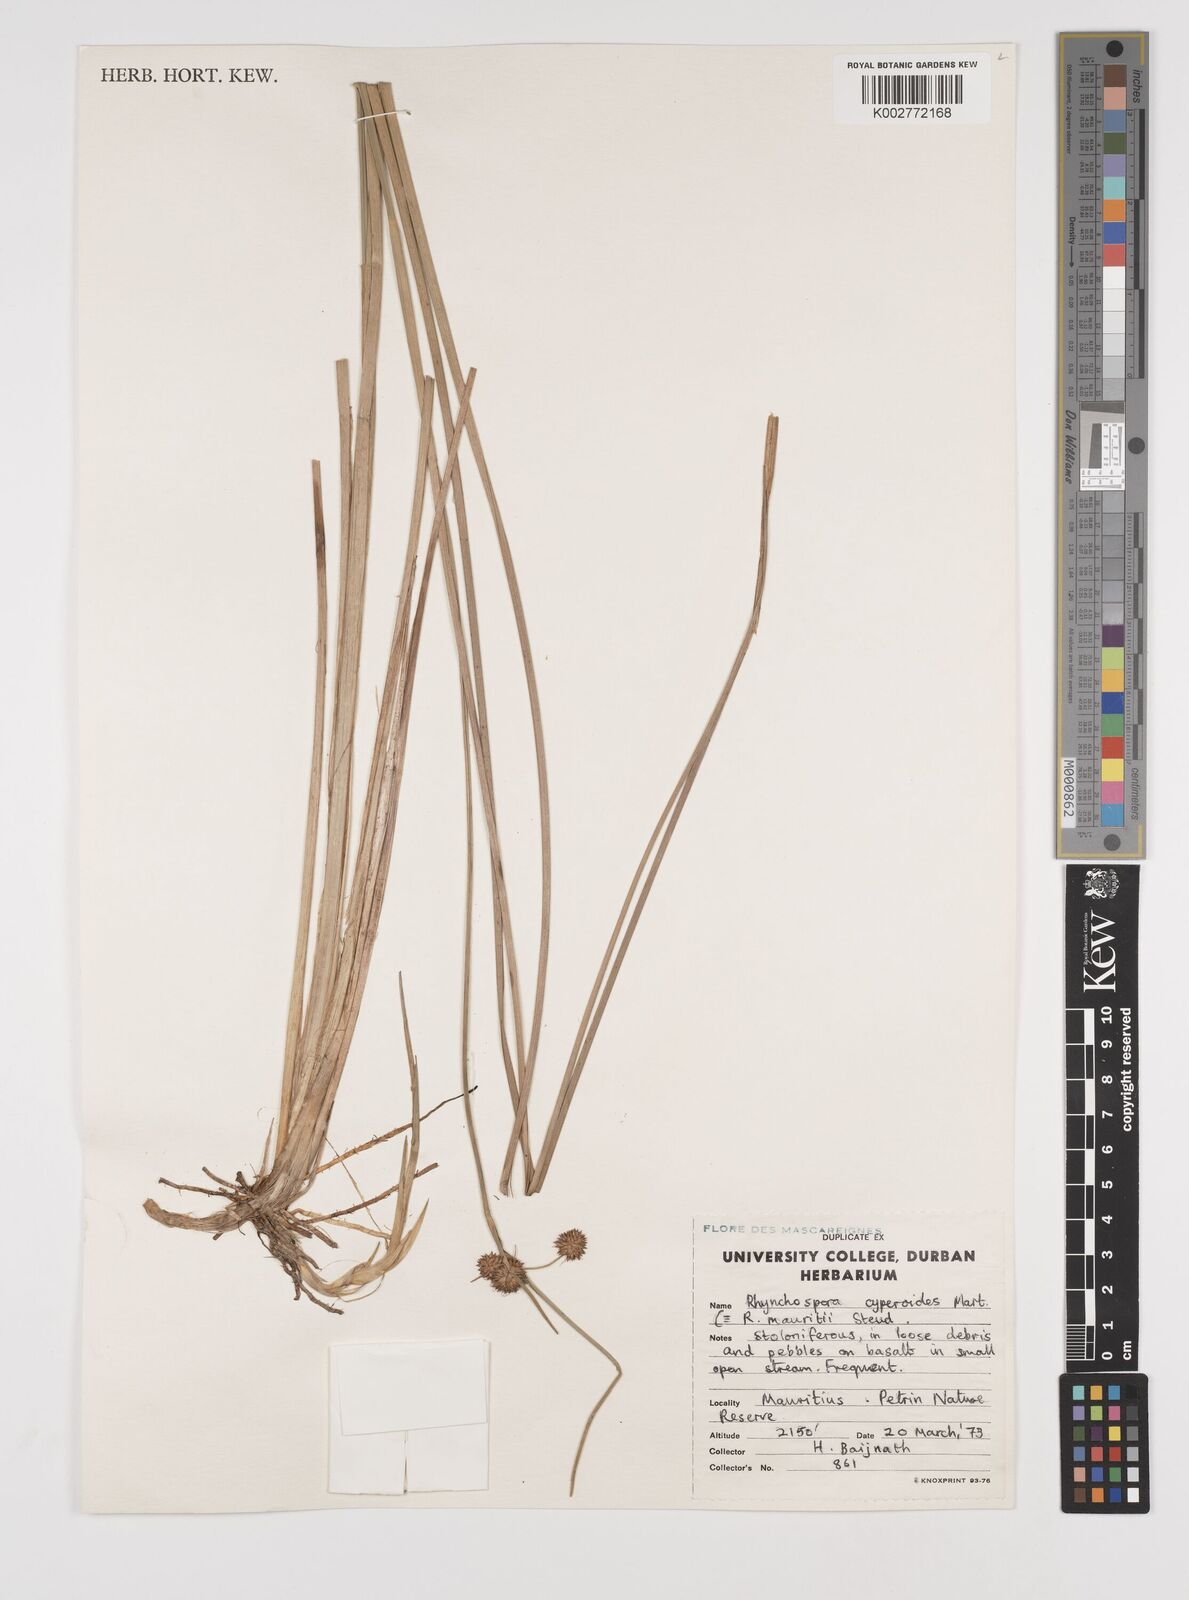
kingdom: Plantae
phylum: Tracheophyta
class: Liliopsida
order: Poales
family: Cyperaceae
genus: Rhynchospora
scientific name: Rhynchospora holoschoenoides
